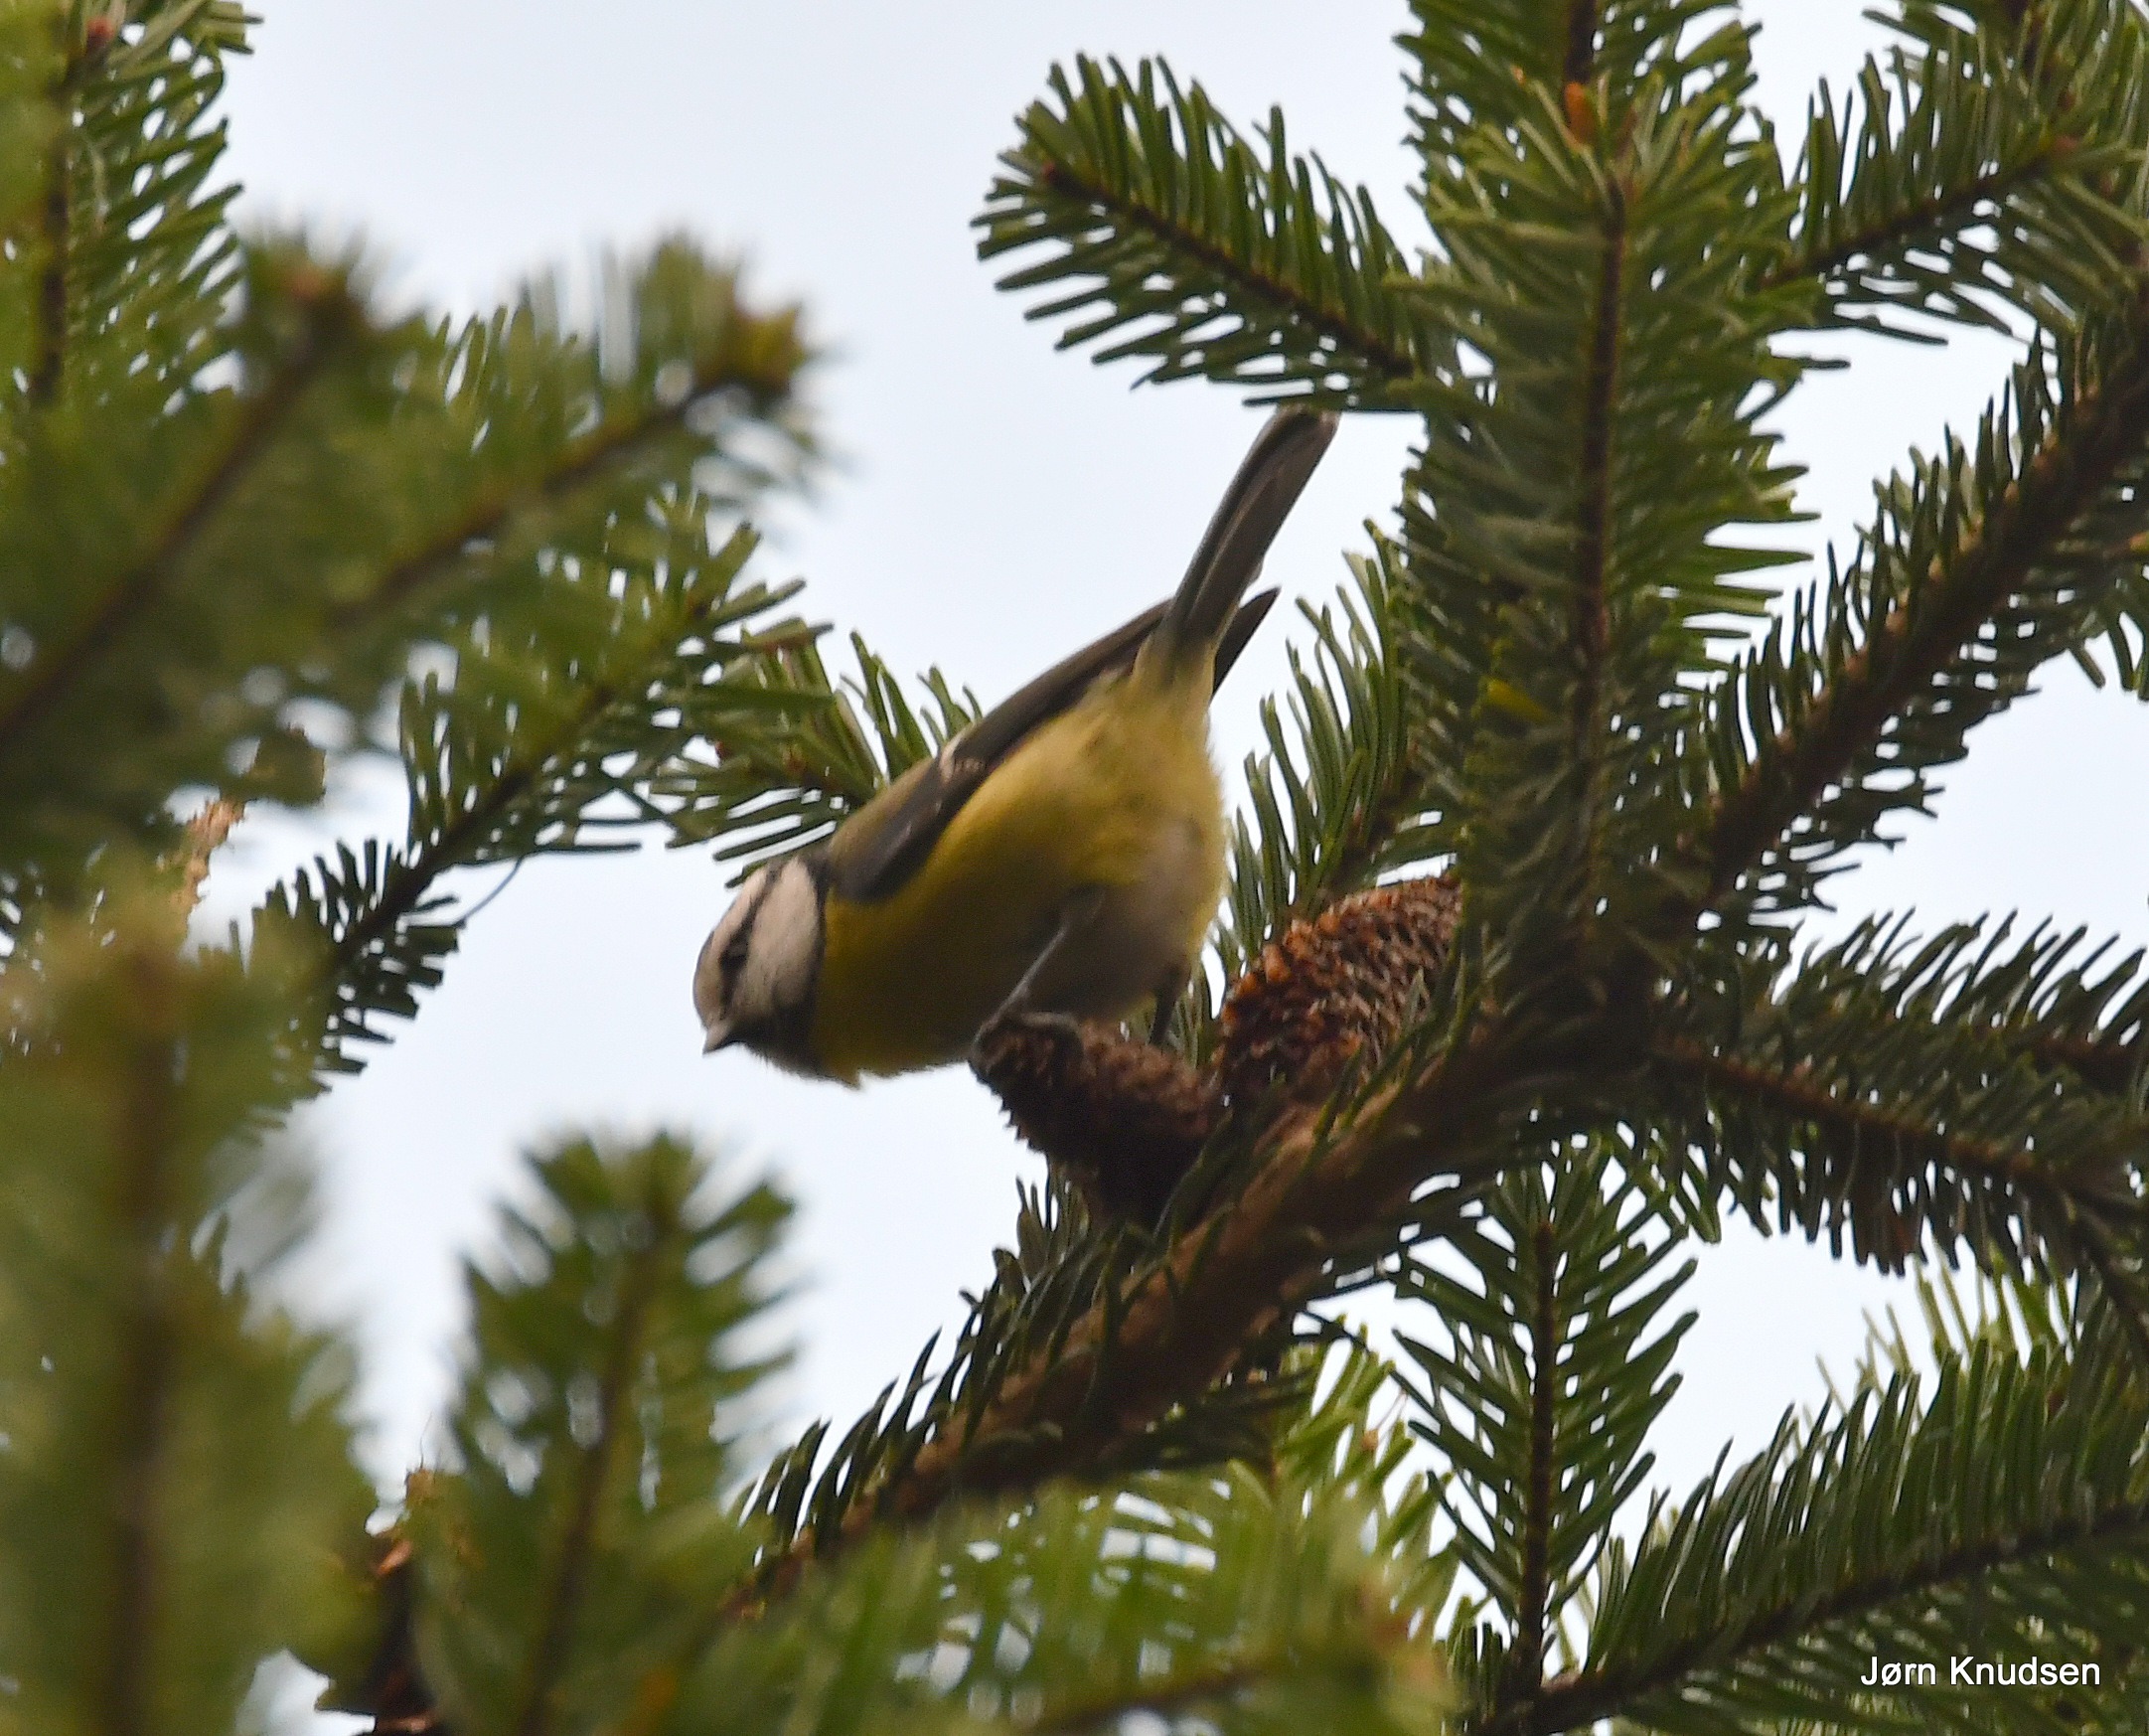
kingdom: Animalia
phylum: Chordata
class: Aves
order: Passeriformes
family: Paridae
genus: Cyanistes
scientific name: Cyanistes caeruleus
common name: Blåmejse
